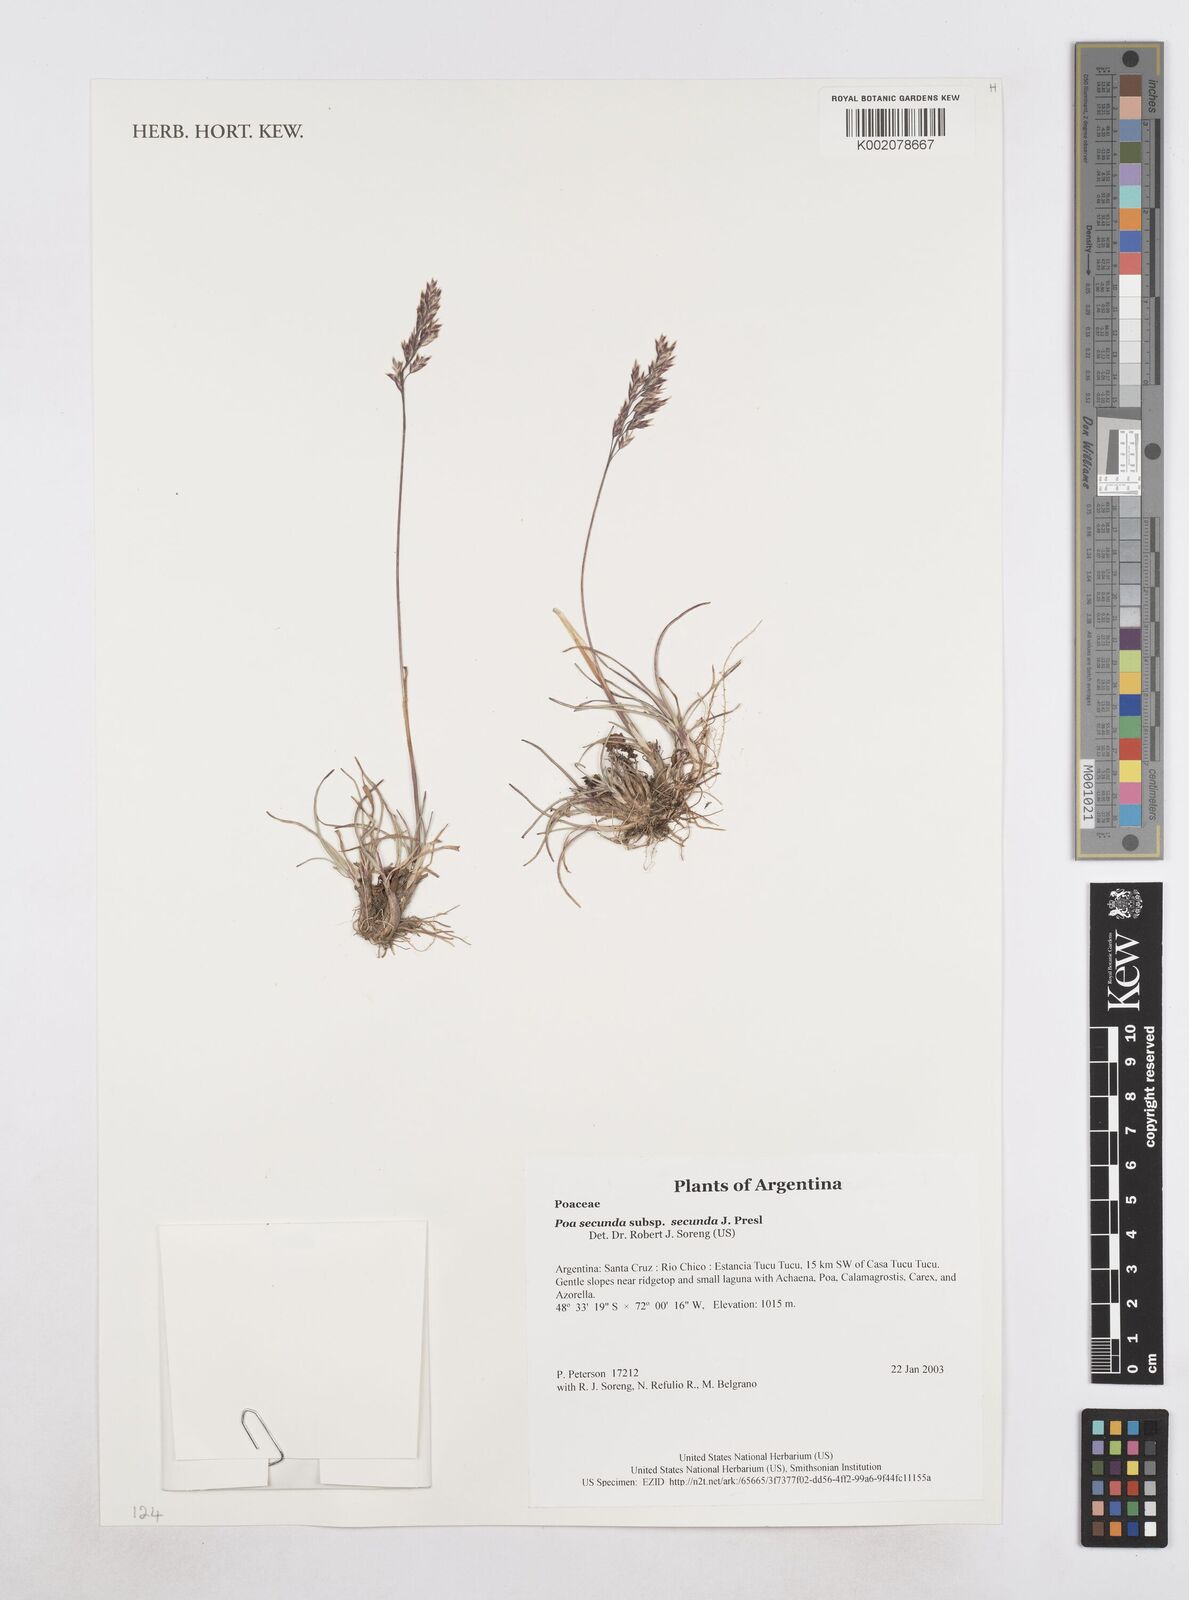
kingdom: Plantae
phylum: Tracheophyta
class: Liliopsida
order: Poales
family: Poaceae
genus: Poa
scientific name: Poa secunda
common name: Sandberg bluegrass
